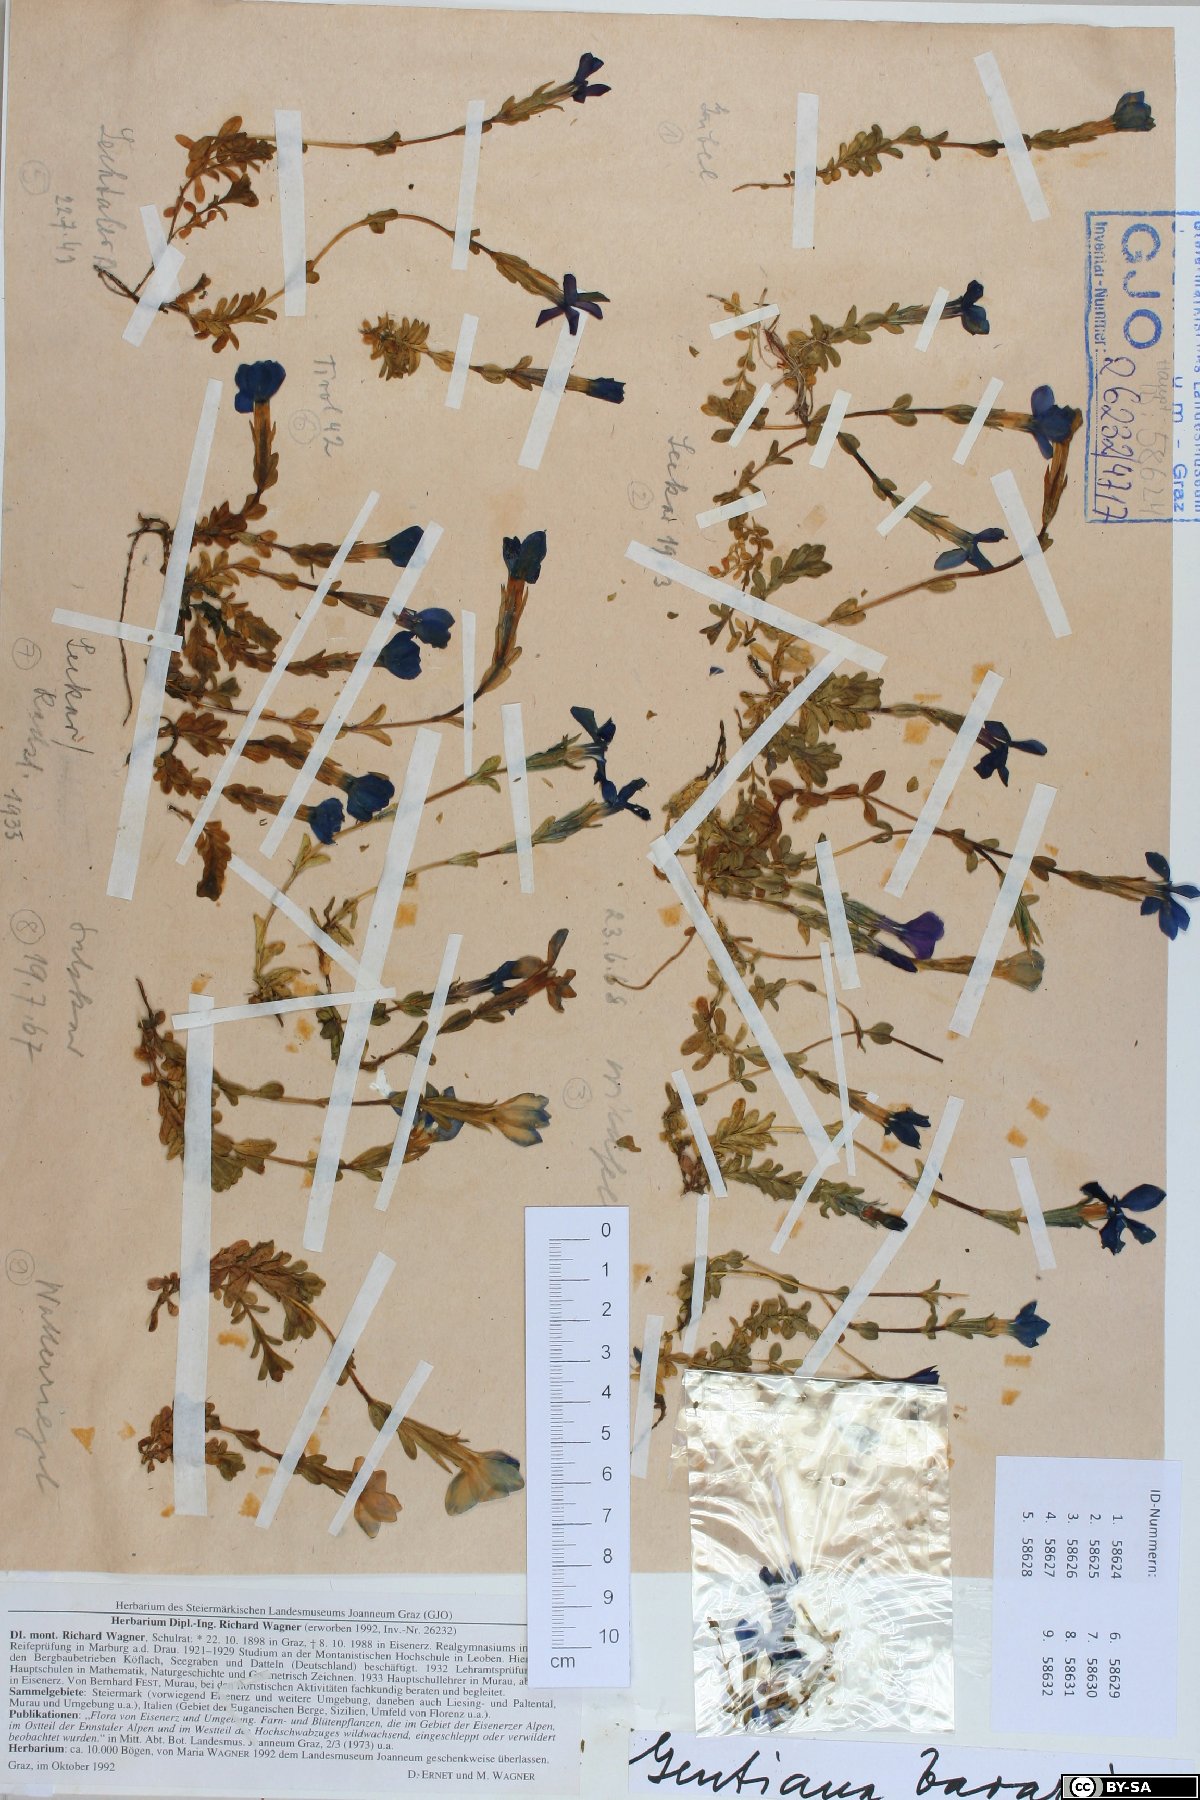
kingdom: Plantae
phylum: Tracheophyta
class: Magnoliopsida
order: Gentianales
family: Gentianaceae
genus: Gentiana
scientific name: Gentiana bavarica
